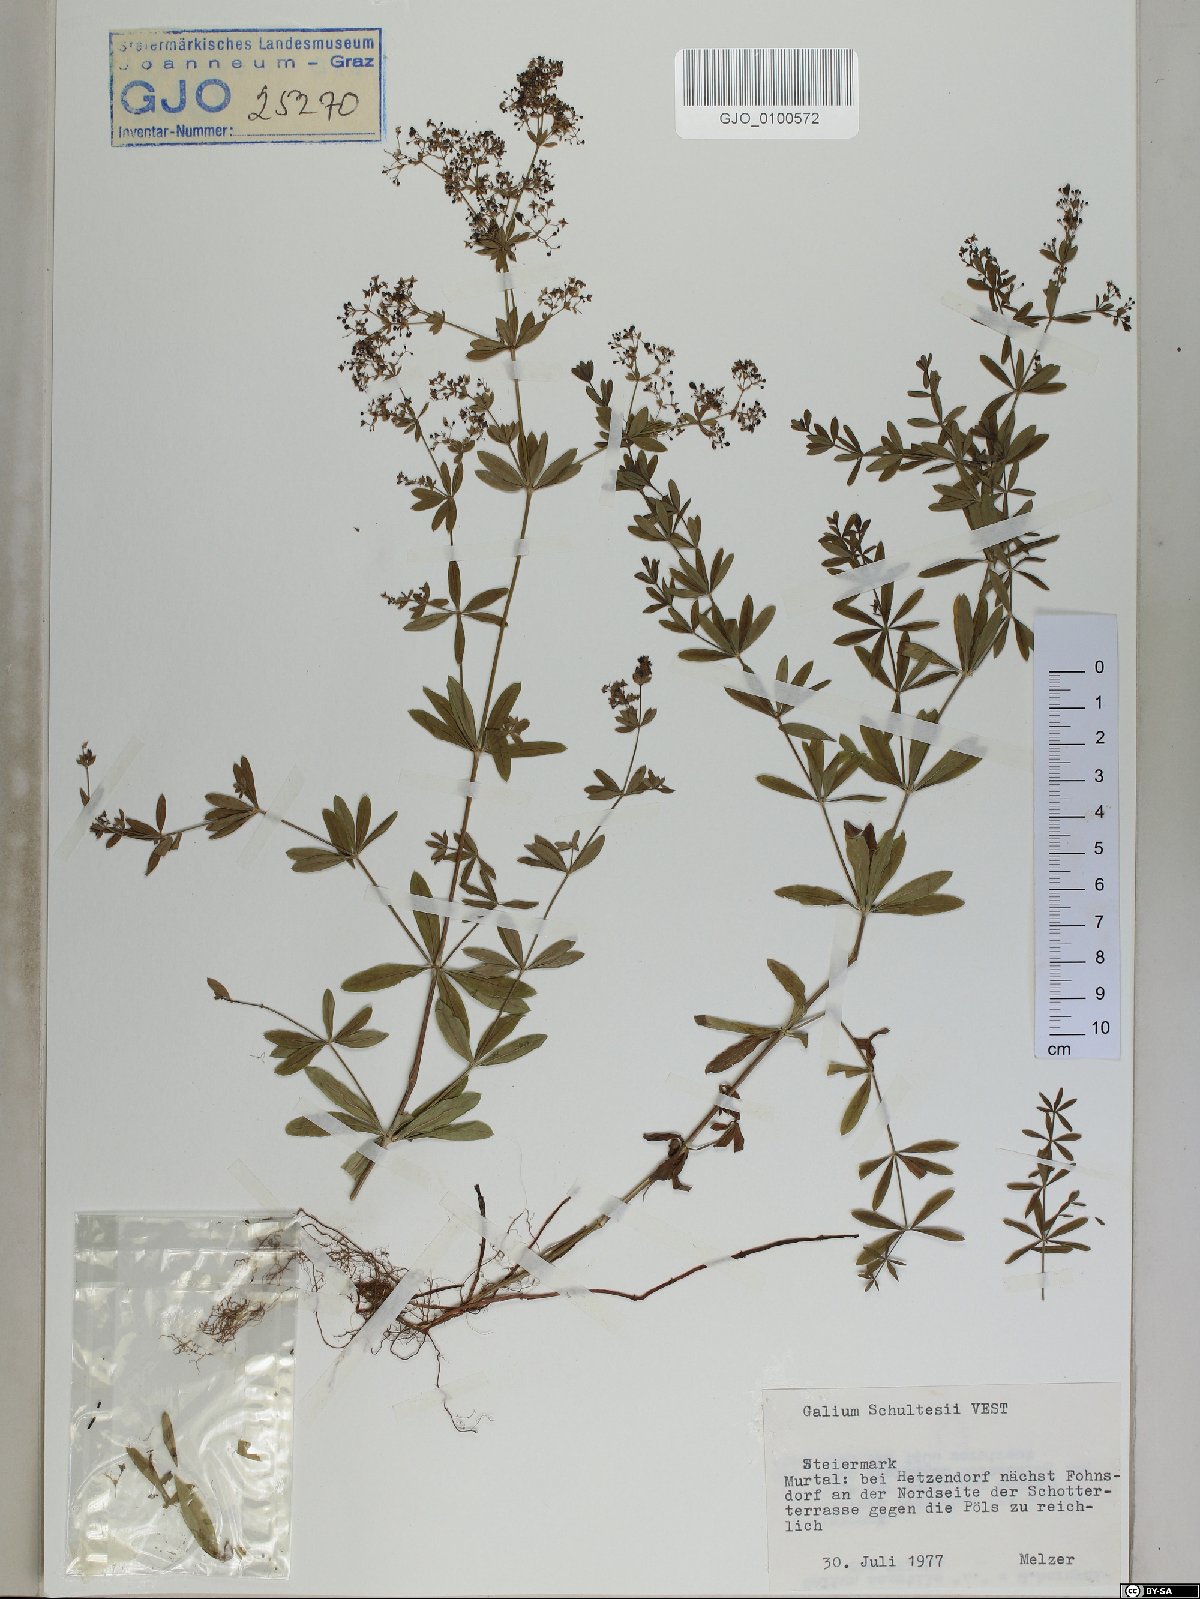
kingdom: Plantae
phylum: Tracheophyta
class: Magnoliopsida
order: Gentianales
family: Rubiaceae
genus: Galium
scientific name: Galium intermedium
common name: Bedstraw
